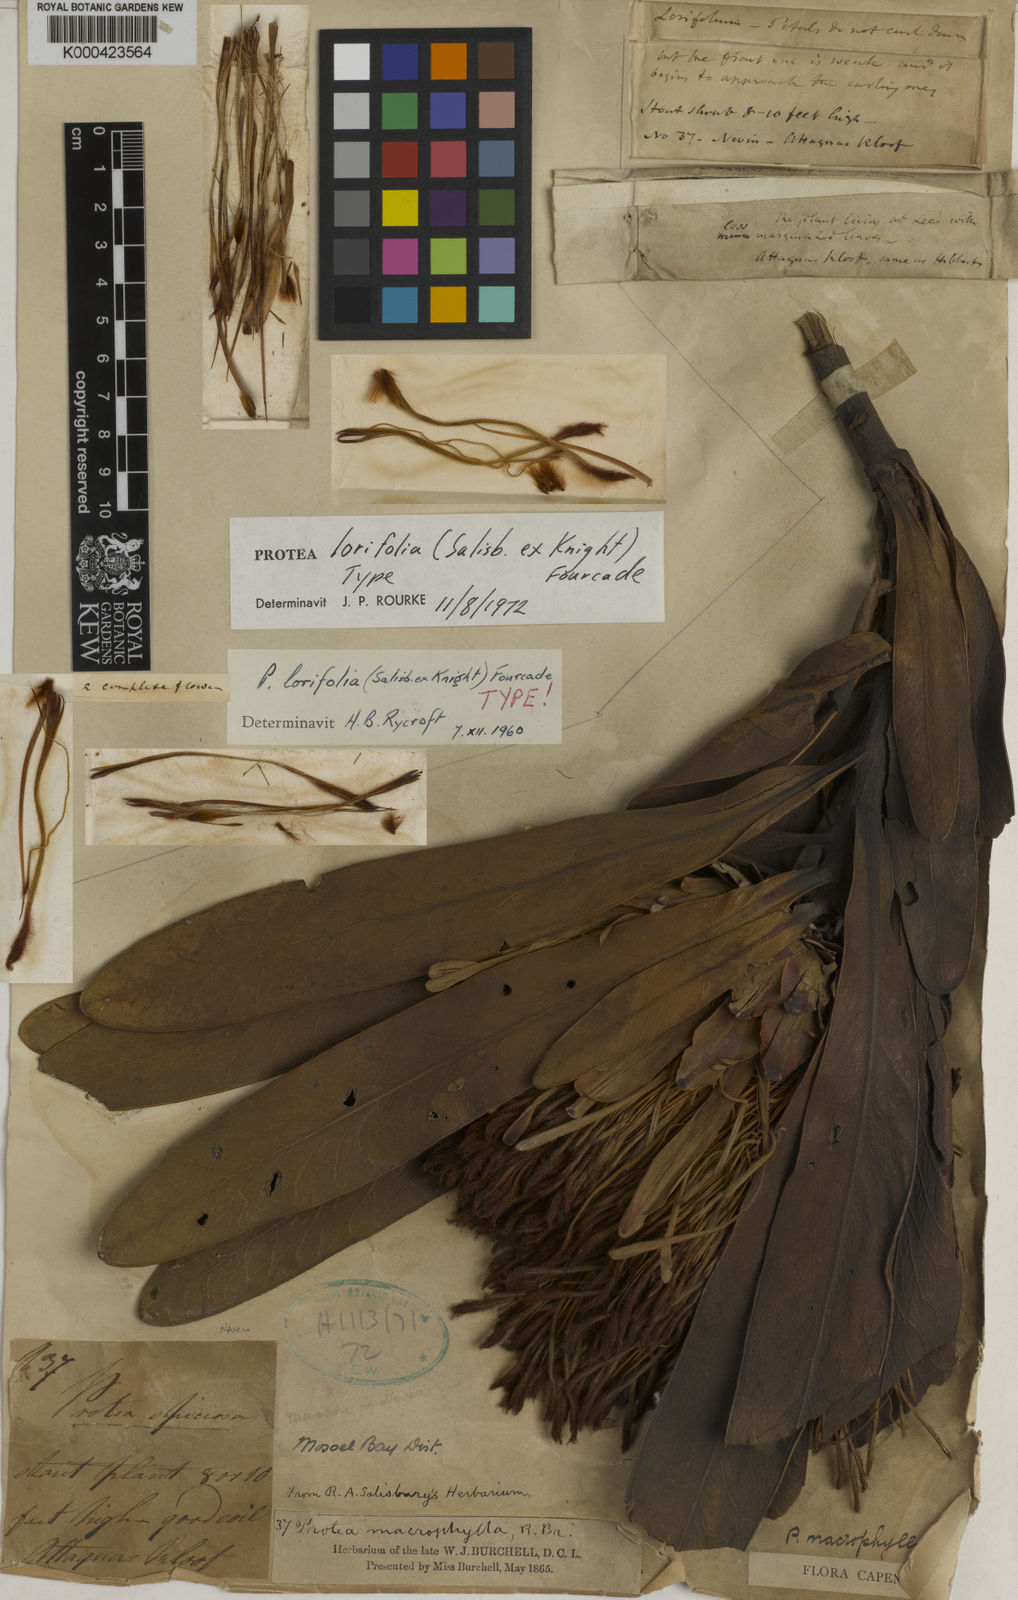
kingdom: Plantae
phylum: Tracheophyta
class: Magnoliopsida
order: Proteales
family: Proteaceae
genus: Protea
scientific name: Protea laurifolia
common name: Grey-leaf sugarbsh
